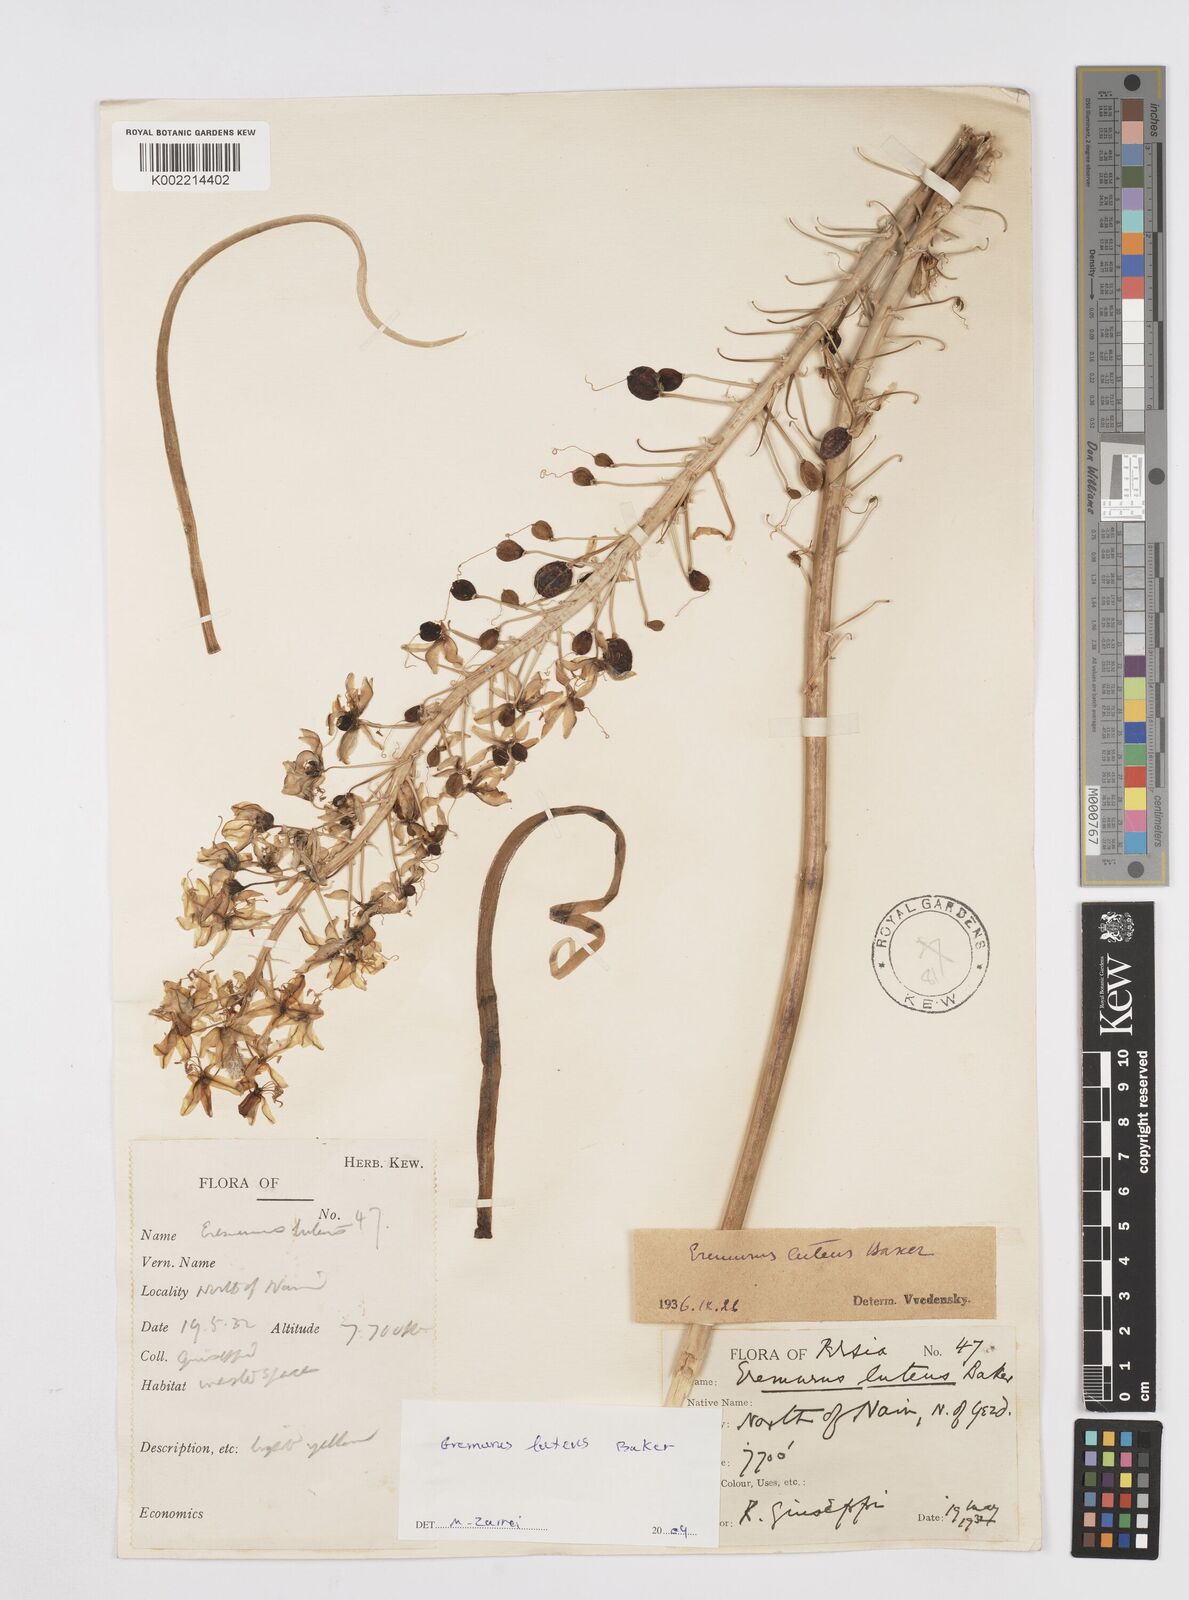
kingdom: Plantae
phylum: Tracheophyta
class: Liliopsida
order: Asparagales
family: Asphodelaceae
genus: Eremurus
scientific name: Eremurus luteus
